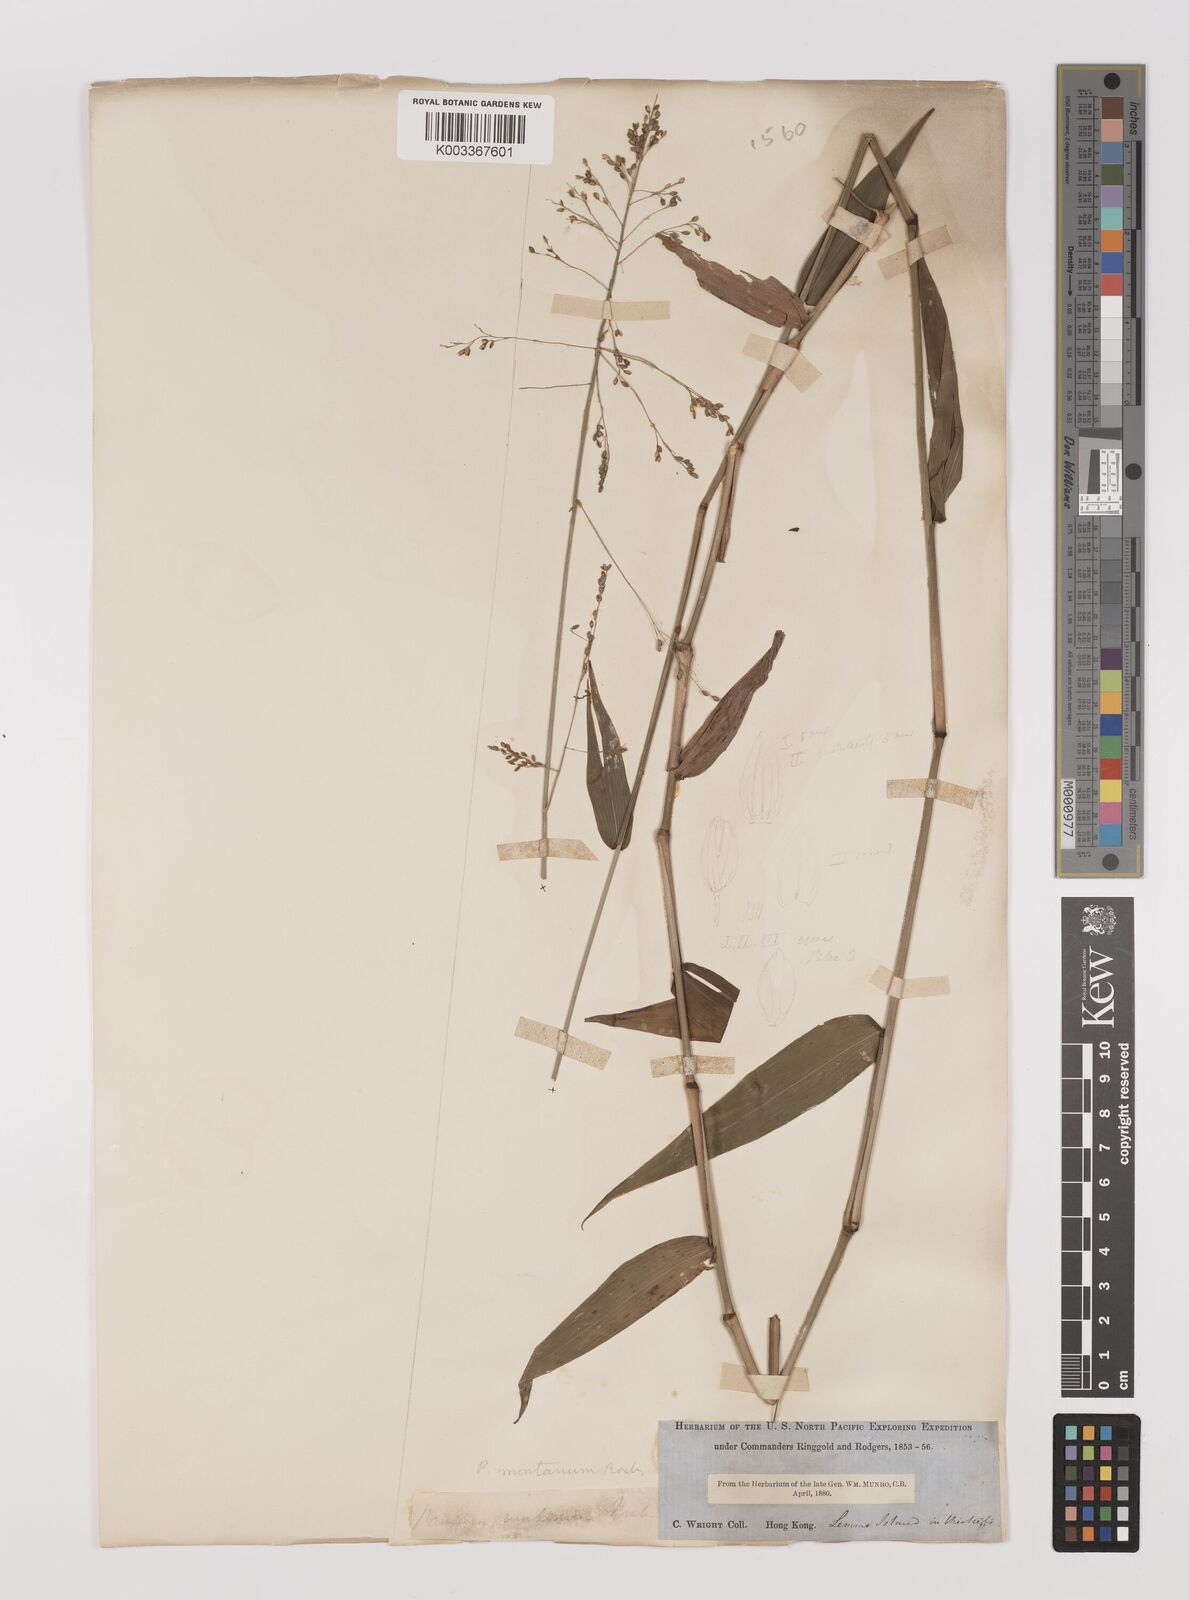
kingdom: Plantae
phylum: Tracheophyta
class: Liliopsida
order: Poales
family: Poaceae
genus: Panicum
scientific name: Panicum notatum
